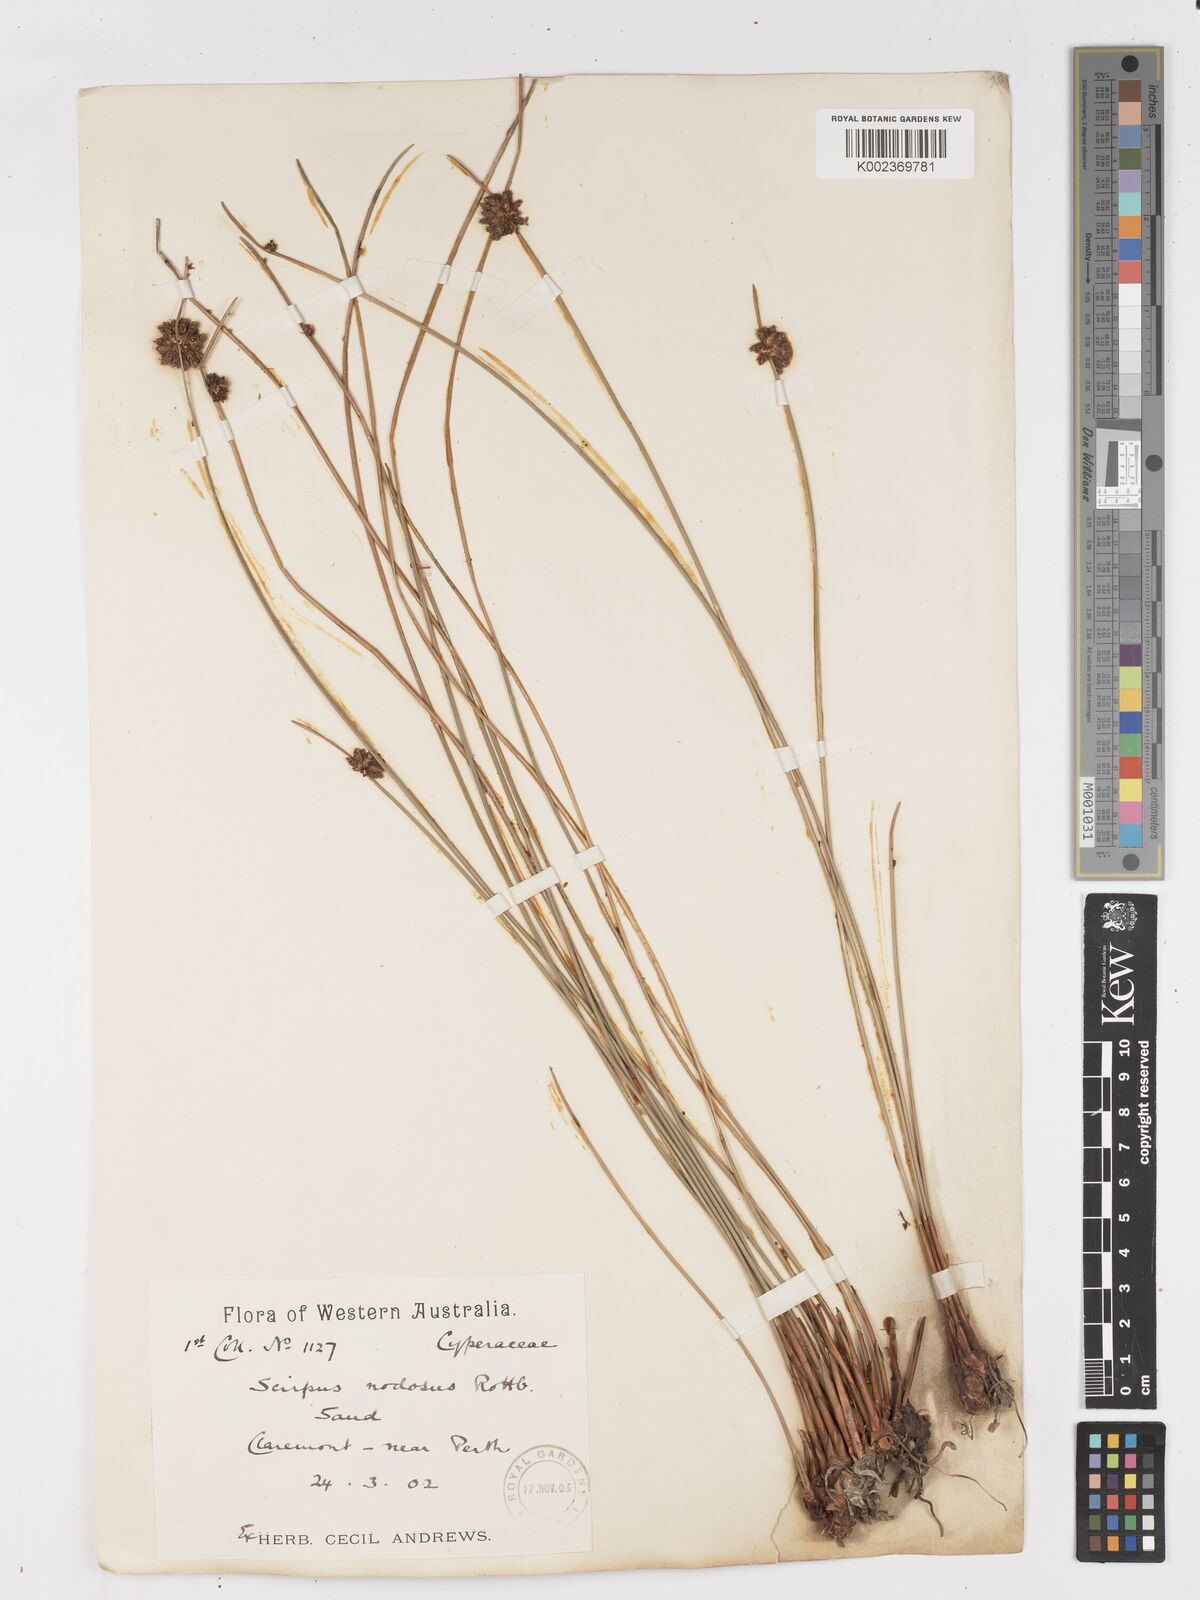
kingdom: Plantae
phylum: Tracheophyta
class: Liliopsida
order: Poales
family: Cyperaceae
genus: Ficinia
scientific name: Ficinia nodosa
